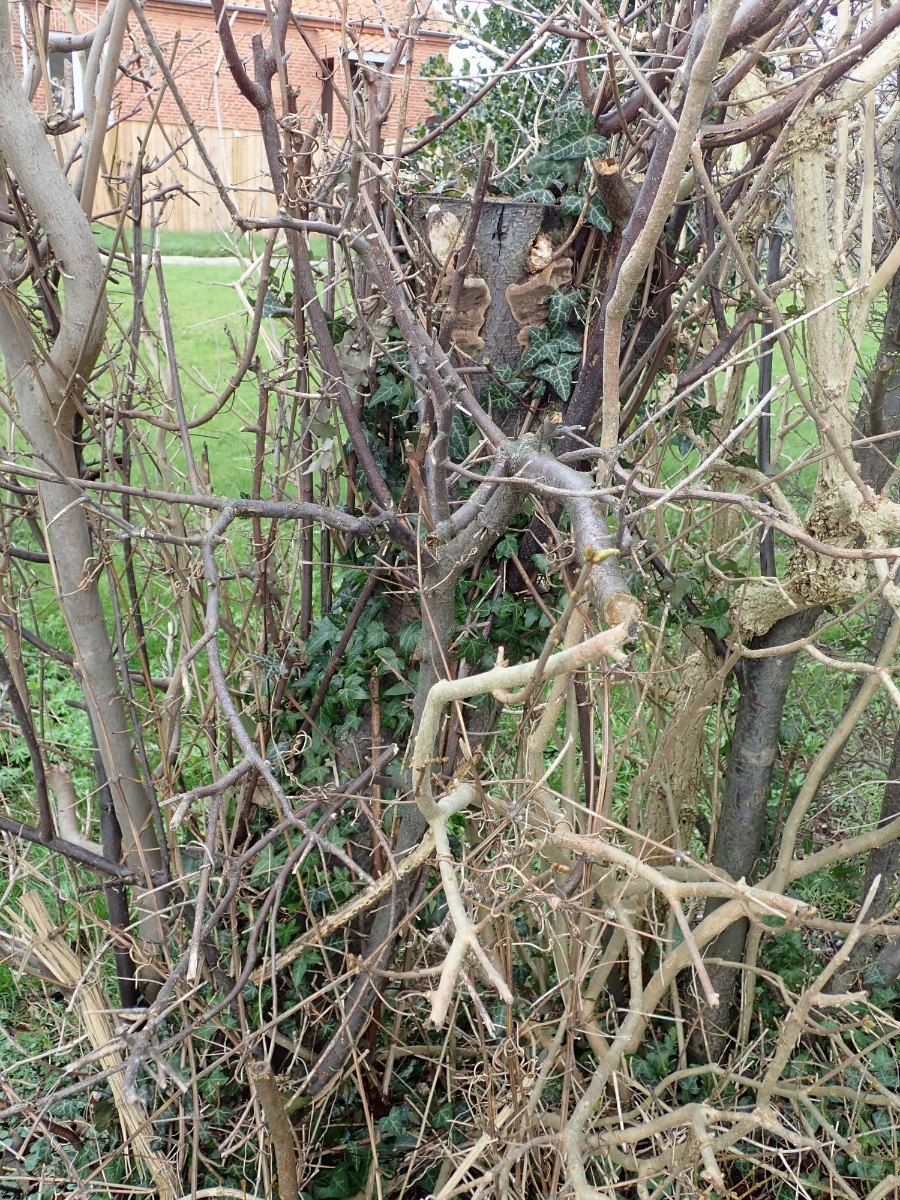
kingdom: Fungi
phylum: Basidiomycota
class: Agaricomycetes
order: Hymenochaetales
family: Hymenochaetaceae
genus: Phellinus
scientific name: Phellinus pomaceus
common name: blomme-ildporesvamp
